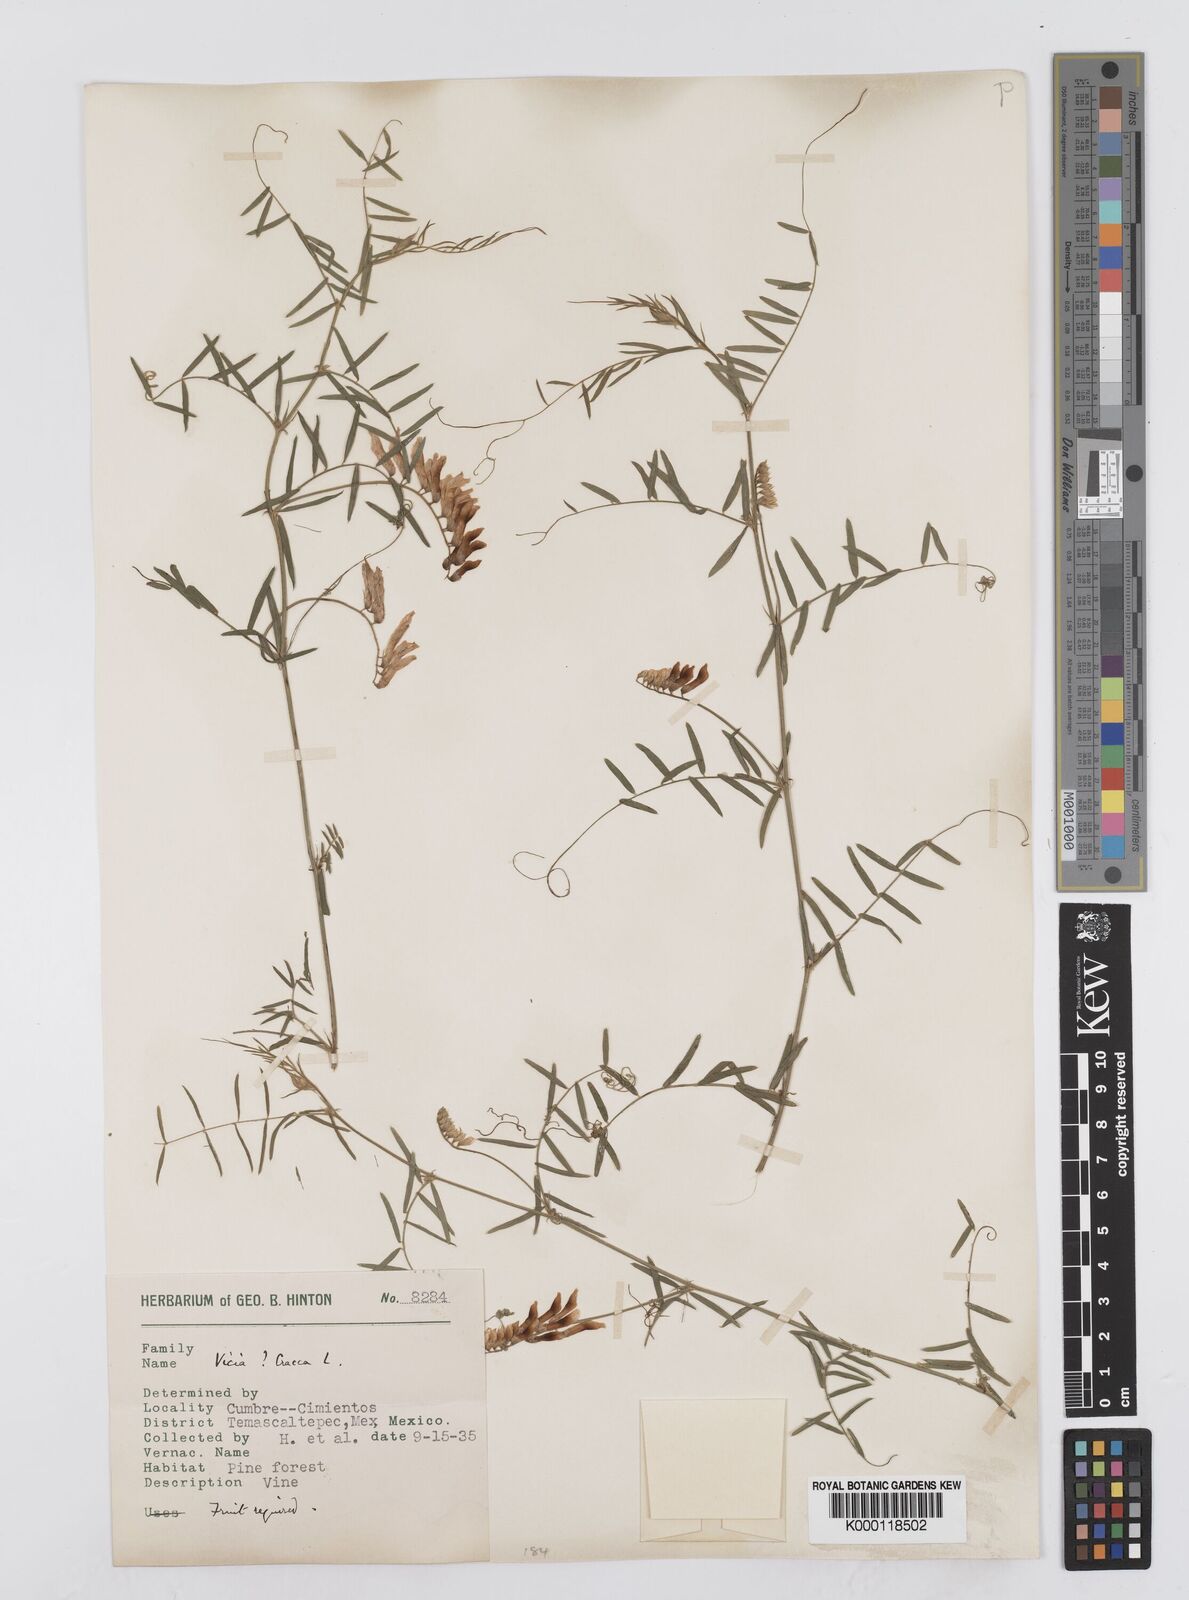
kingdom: Plantae
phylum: Tracheophyta
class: Magnoliopsida
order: Fabales
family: Fabaceae
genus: Vicia
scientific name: Vicia cracca
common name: Bird vetch
